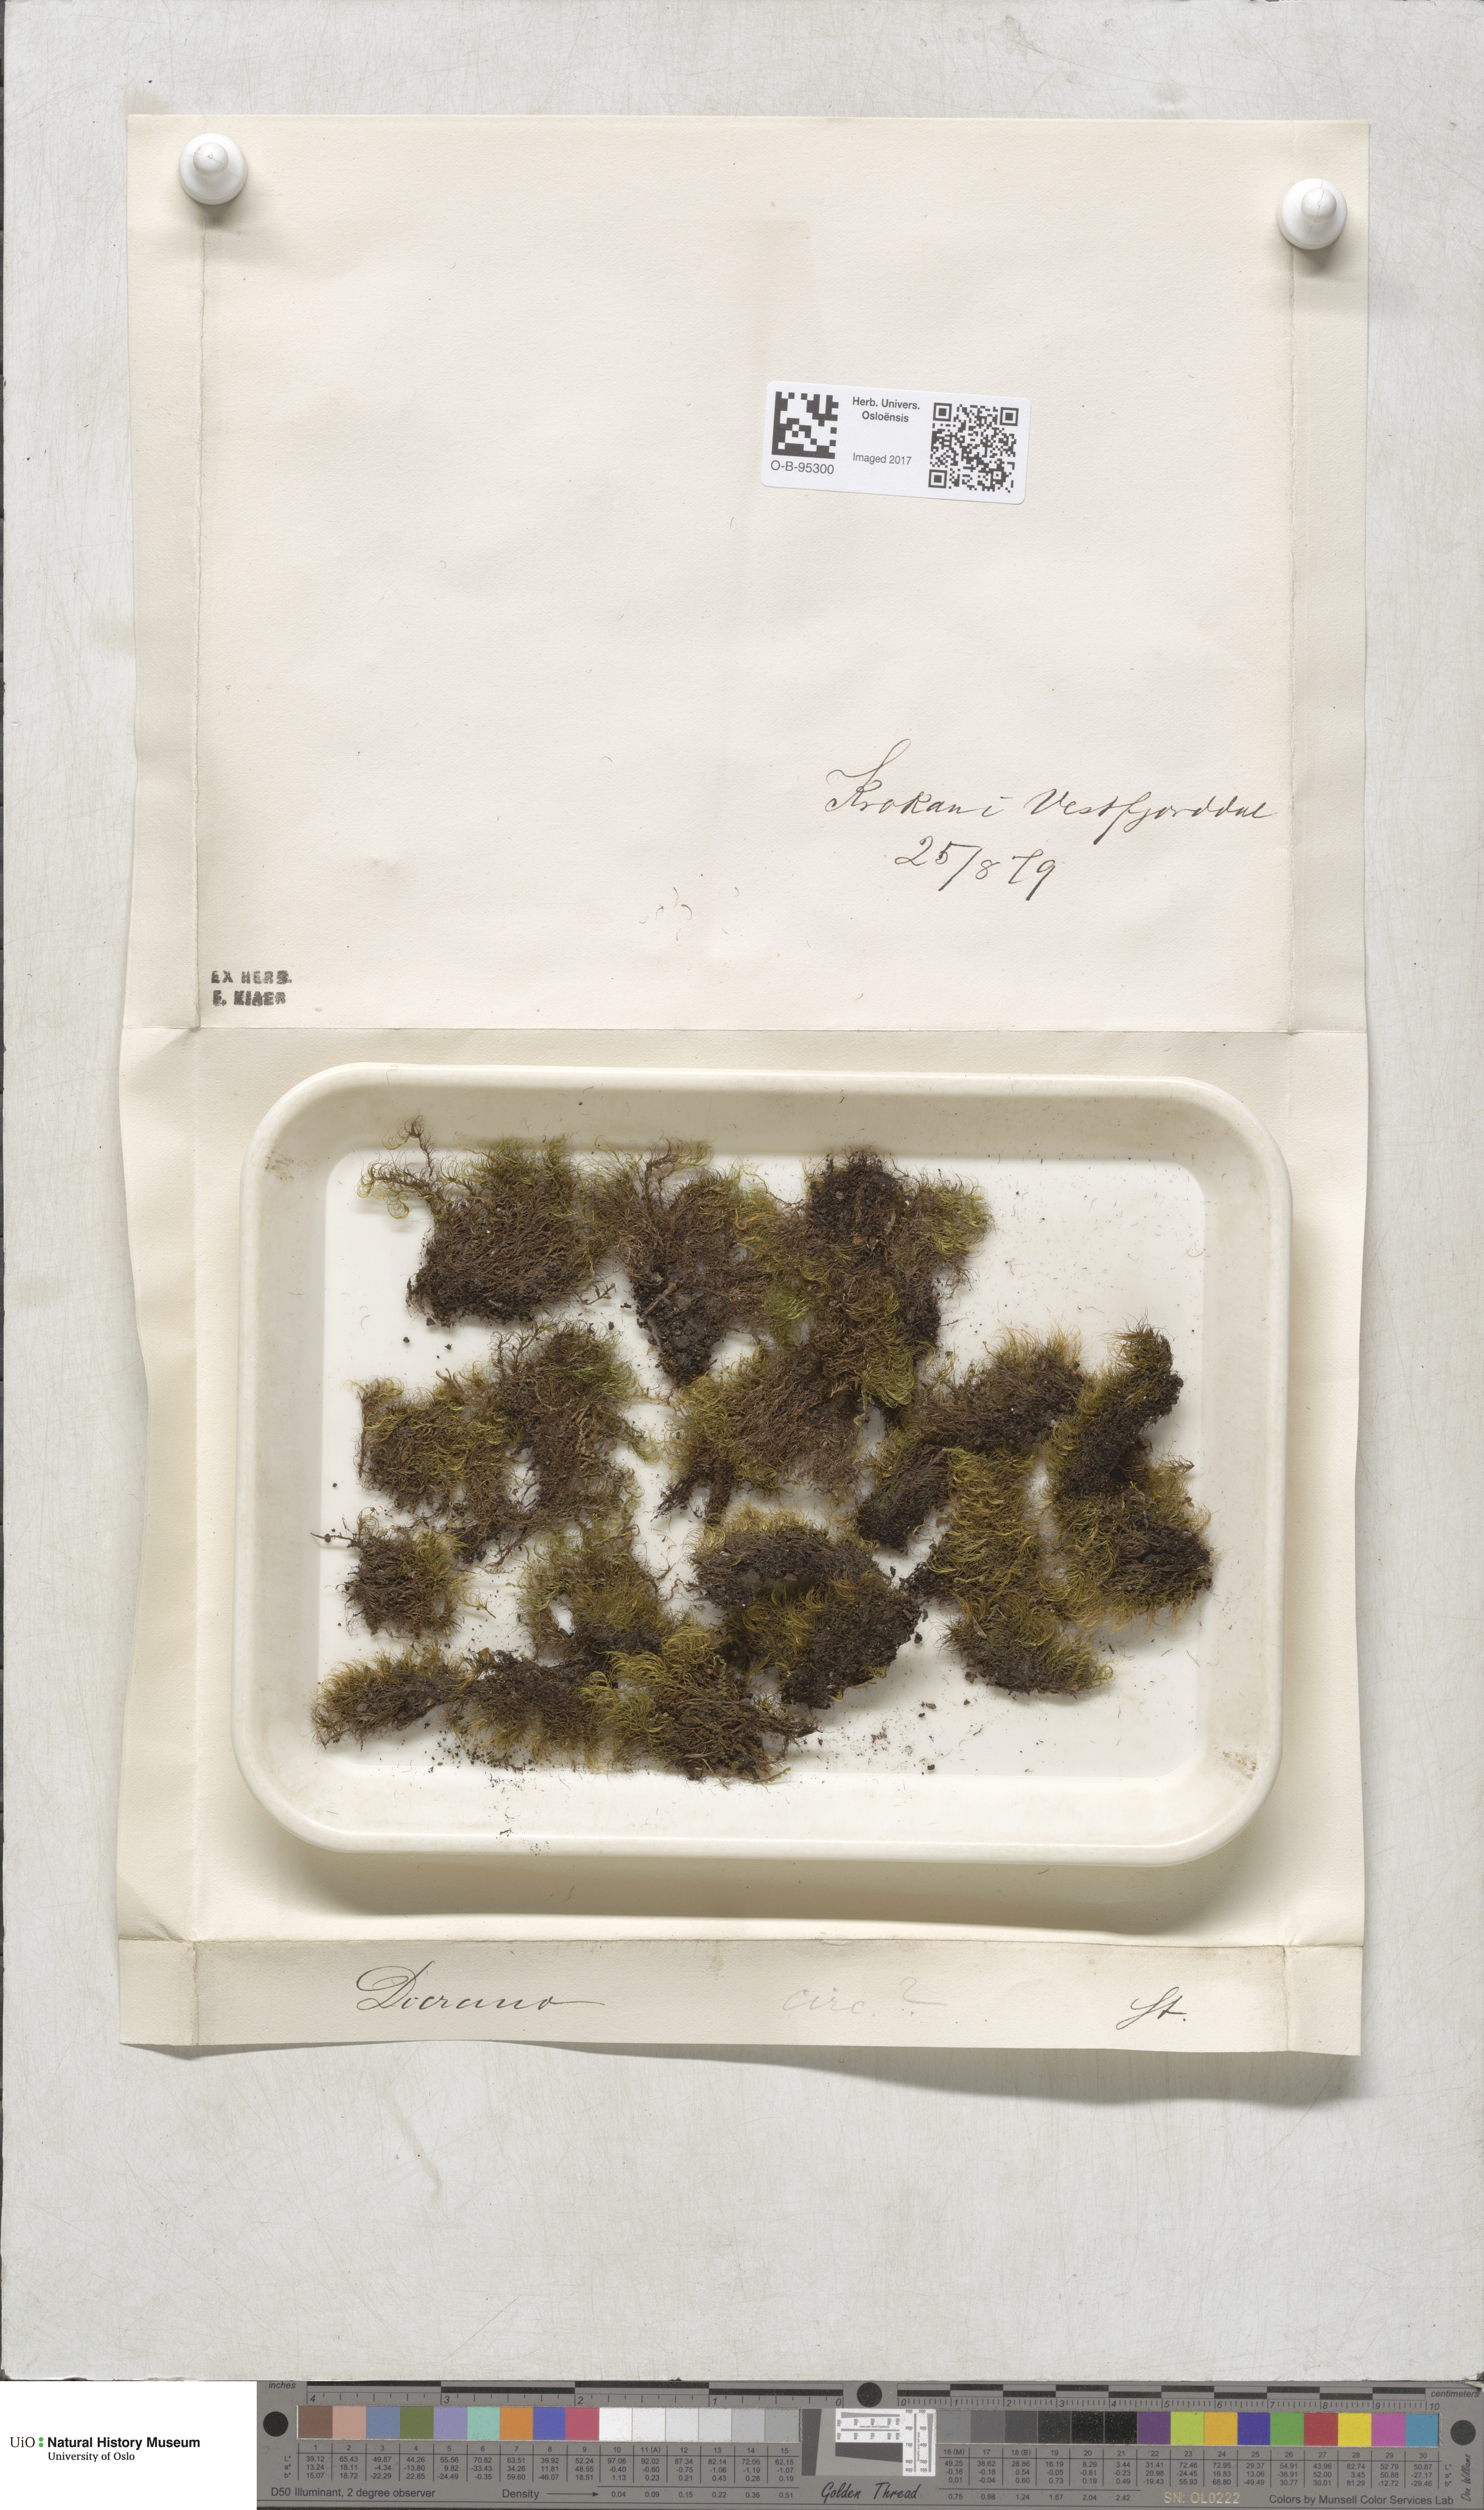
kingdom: Plantae
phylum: Bryophyta
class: Bryopsida
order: Dicranales
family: Dicranaceae
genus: Paraleucobryum
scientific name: Paraleucobryum longifolium
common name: Long-leaved fork moss
